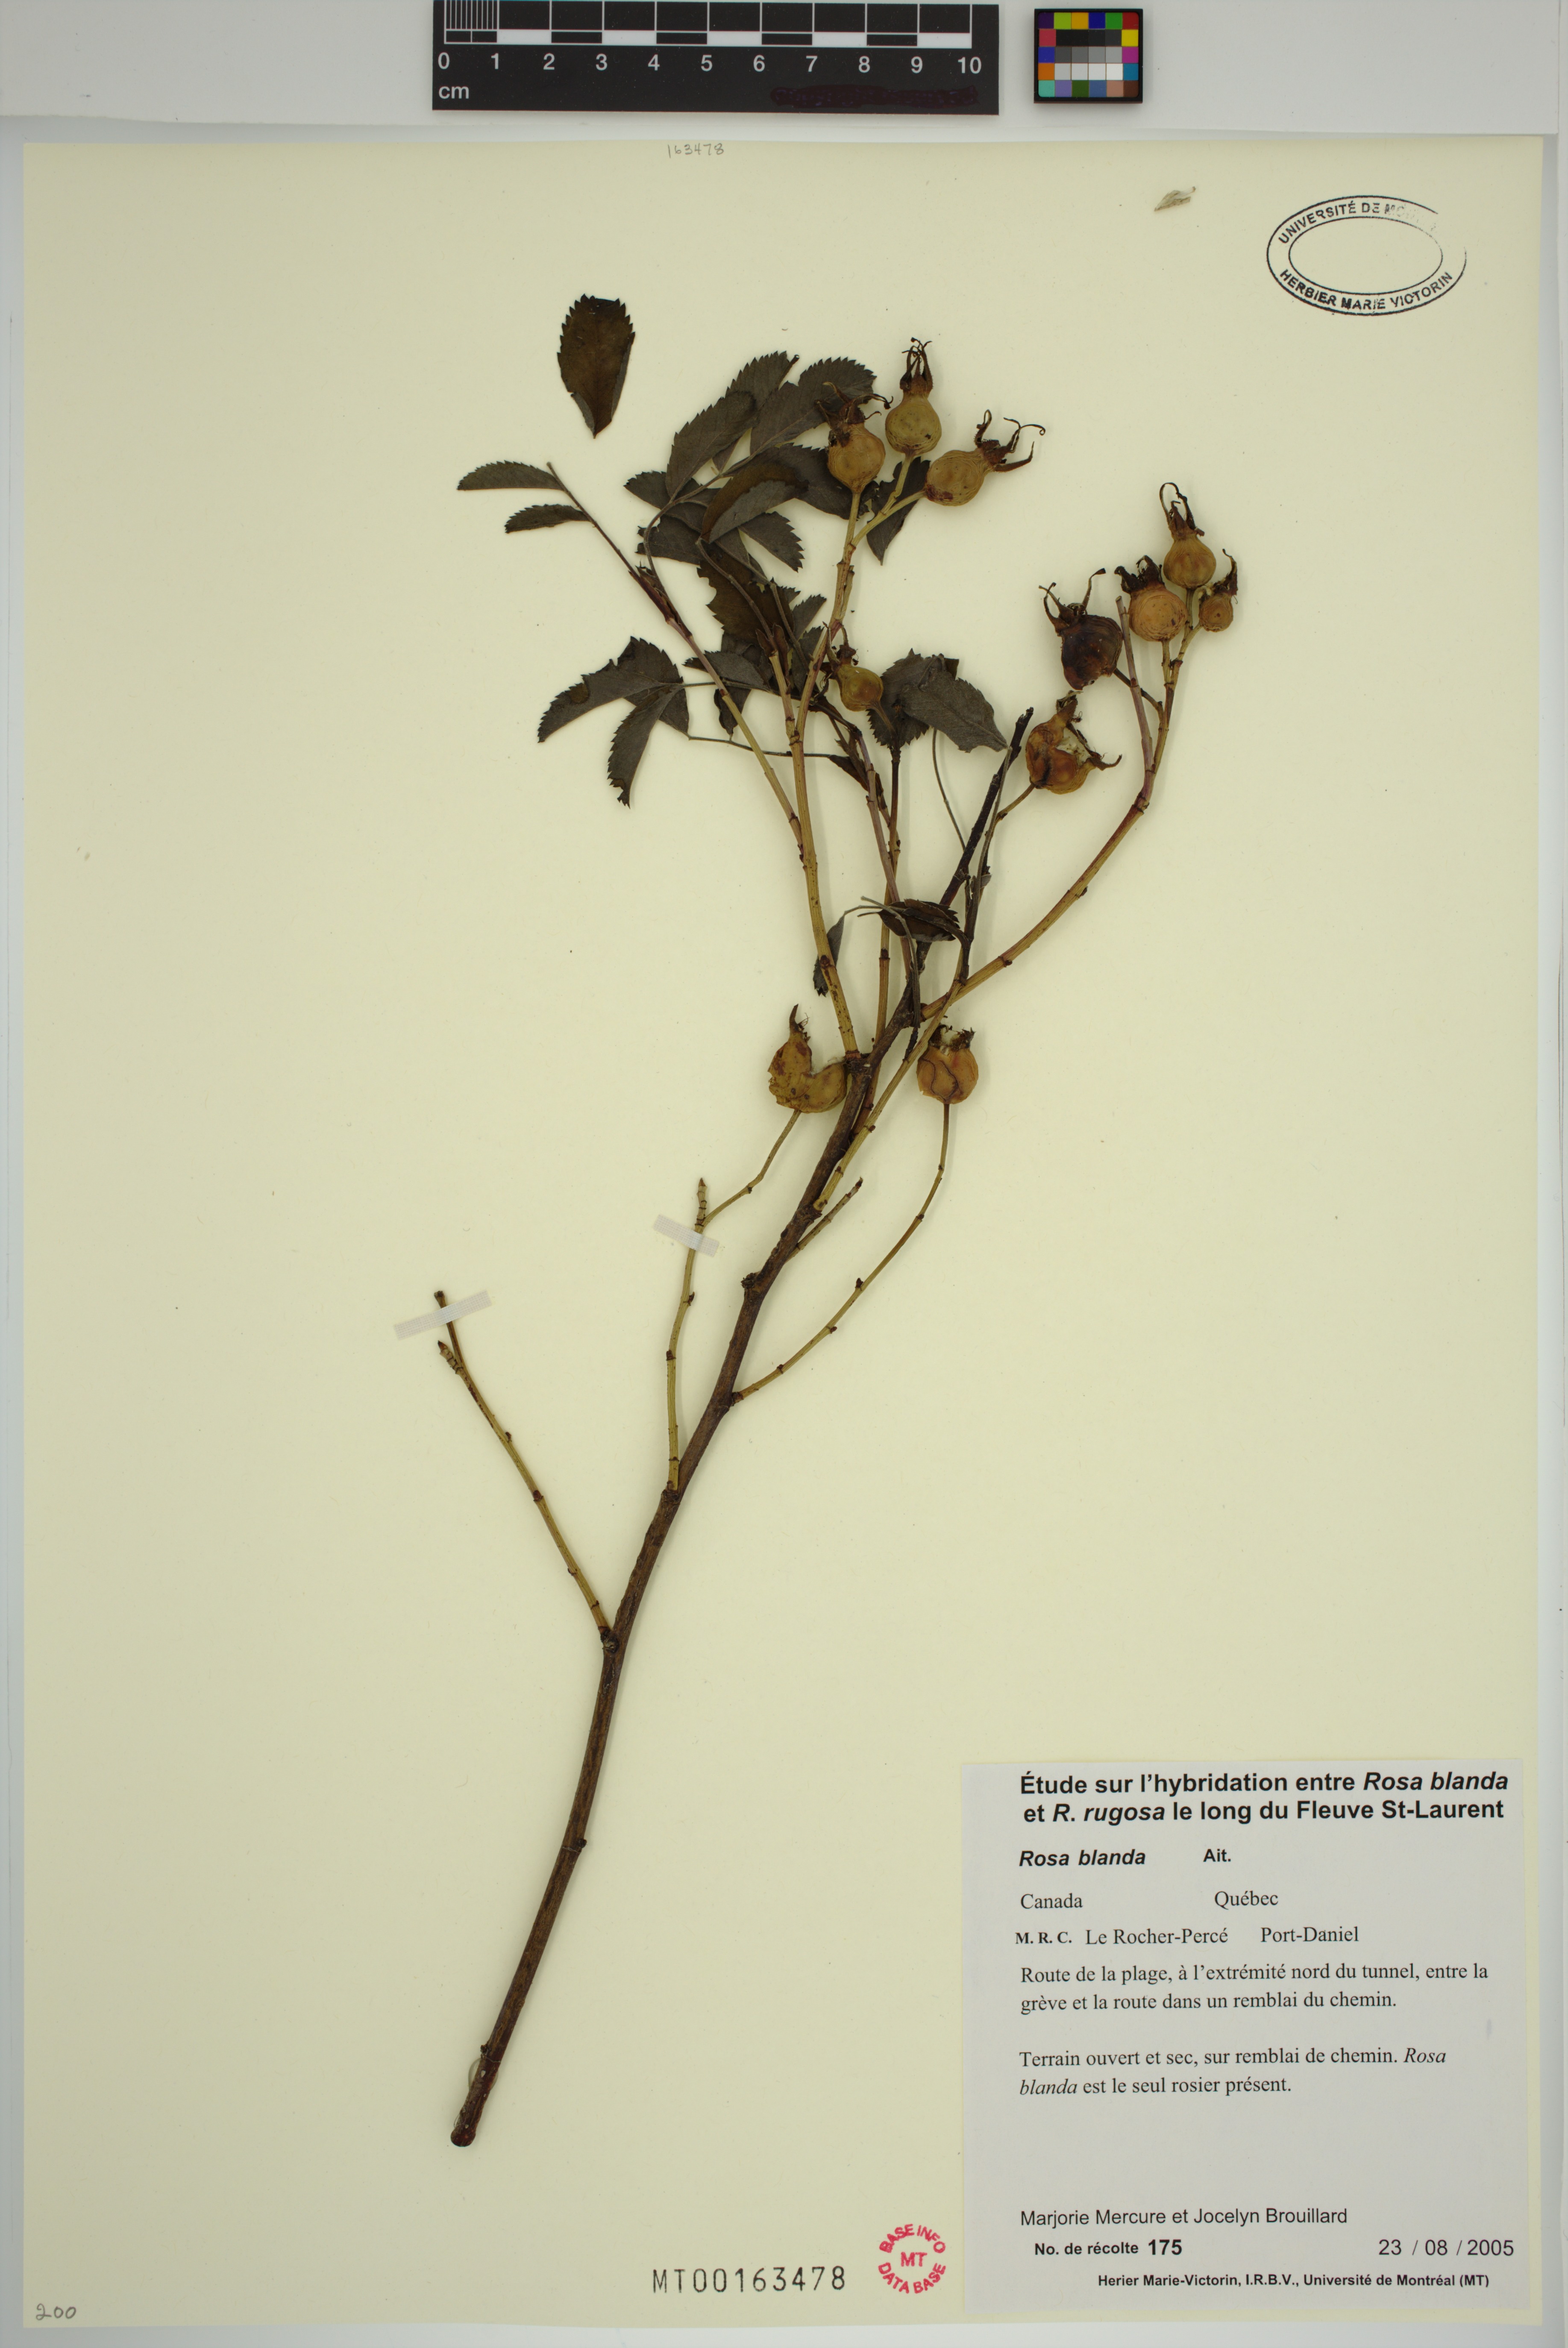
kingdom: Plantae
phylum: Tracheophyta
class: Magnoliopsida
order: Rosales
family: Rosaceae
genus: Rosa
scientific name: Rosa blanda
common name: Smooth rose
